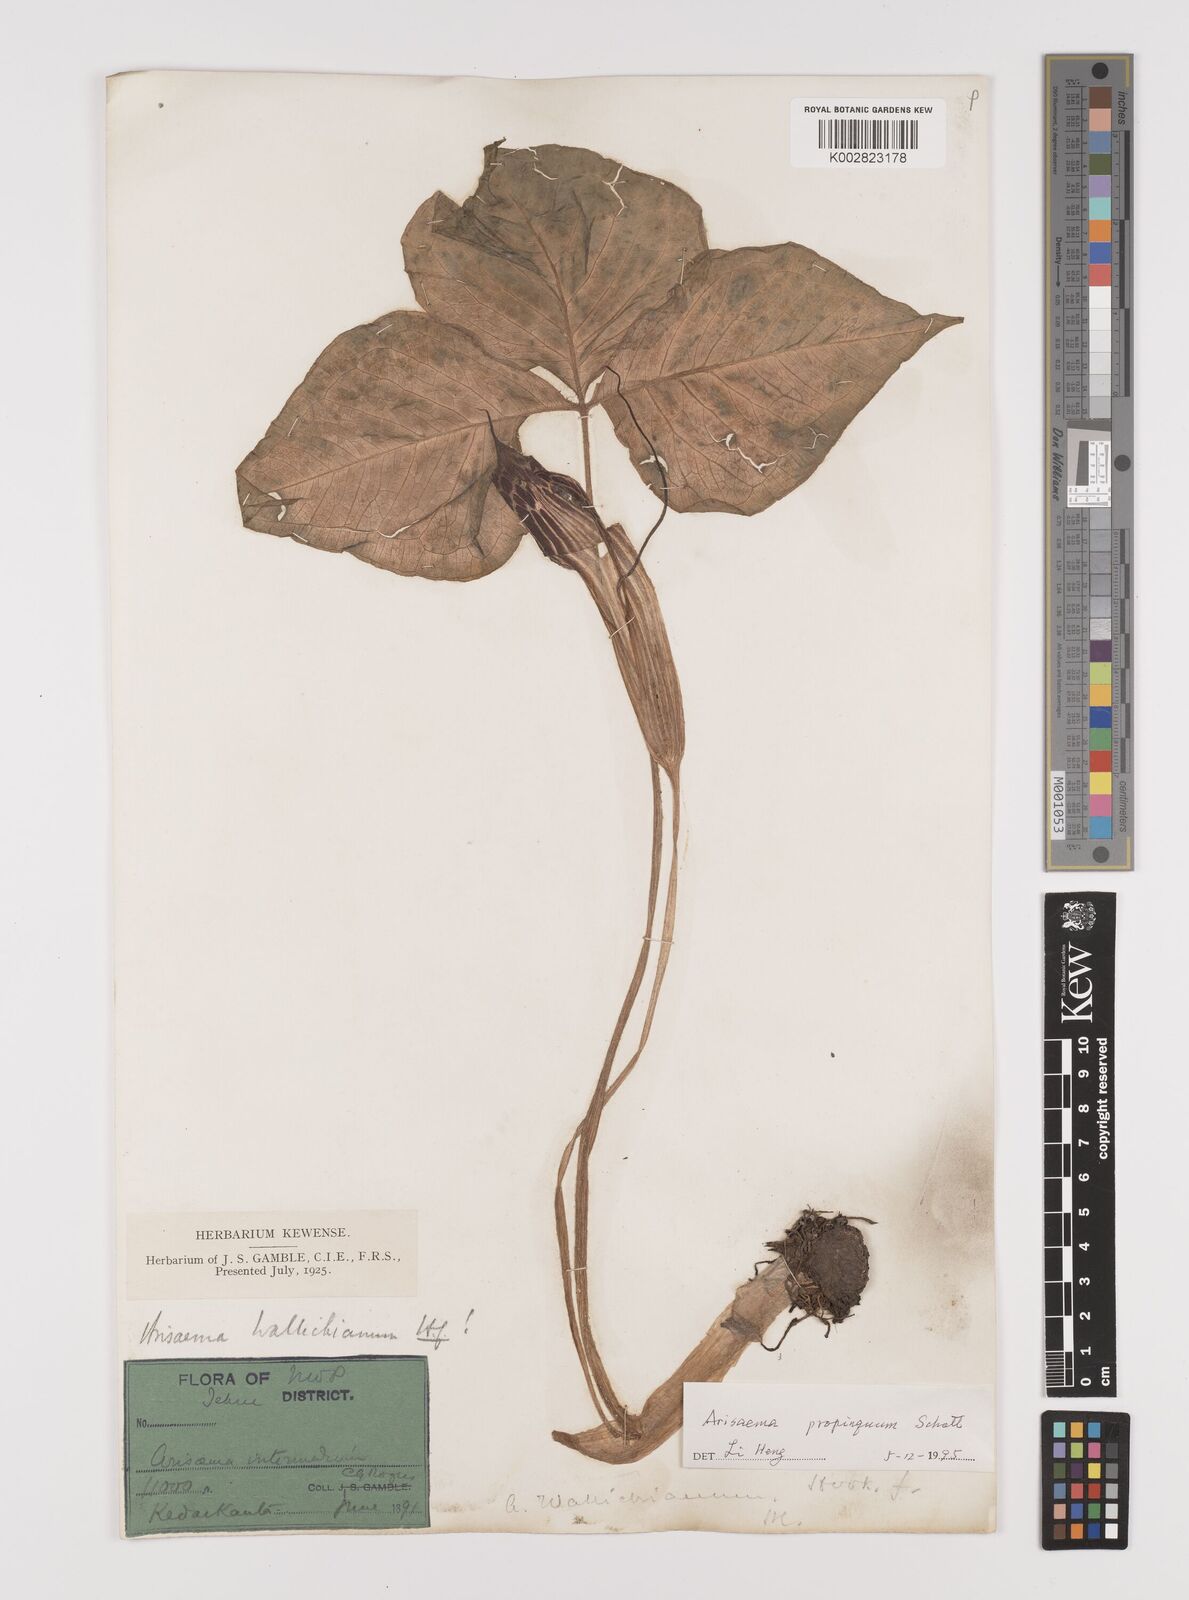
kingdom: Plantae
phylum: Tracheophyta
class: Liliopsida
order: Alismatales
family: Araceae
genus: Arisaema
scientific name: Arisaema propinquum
